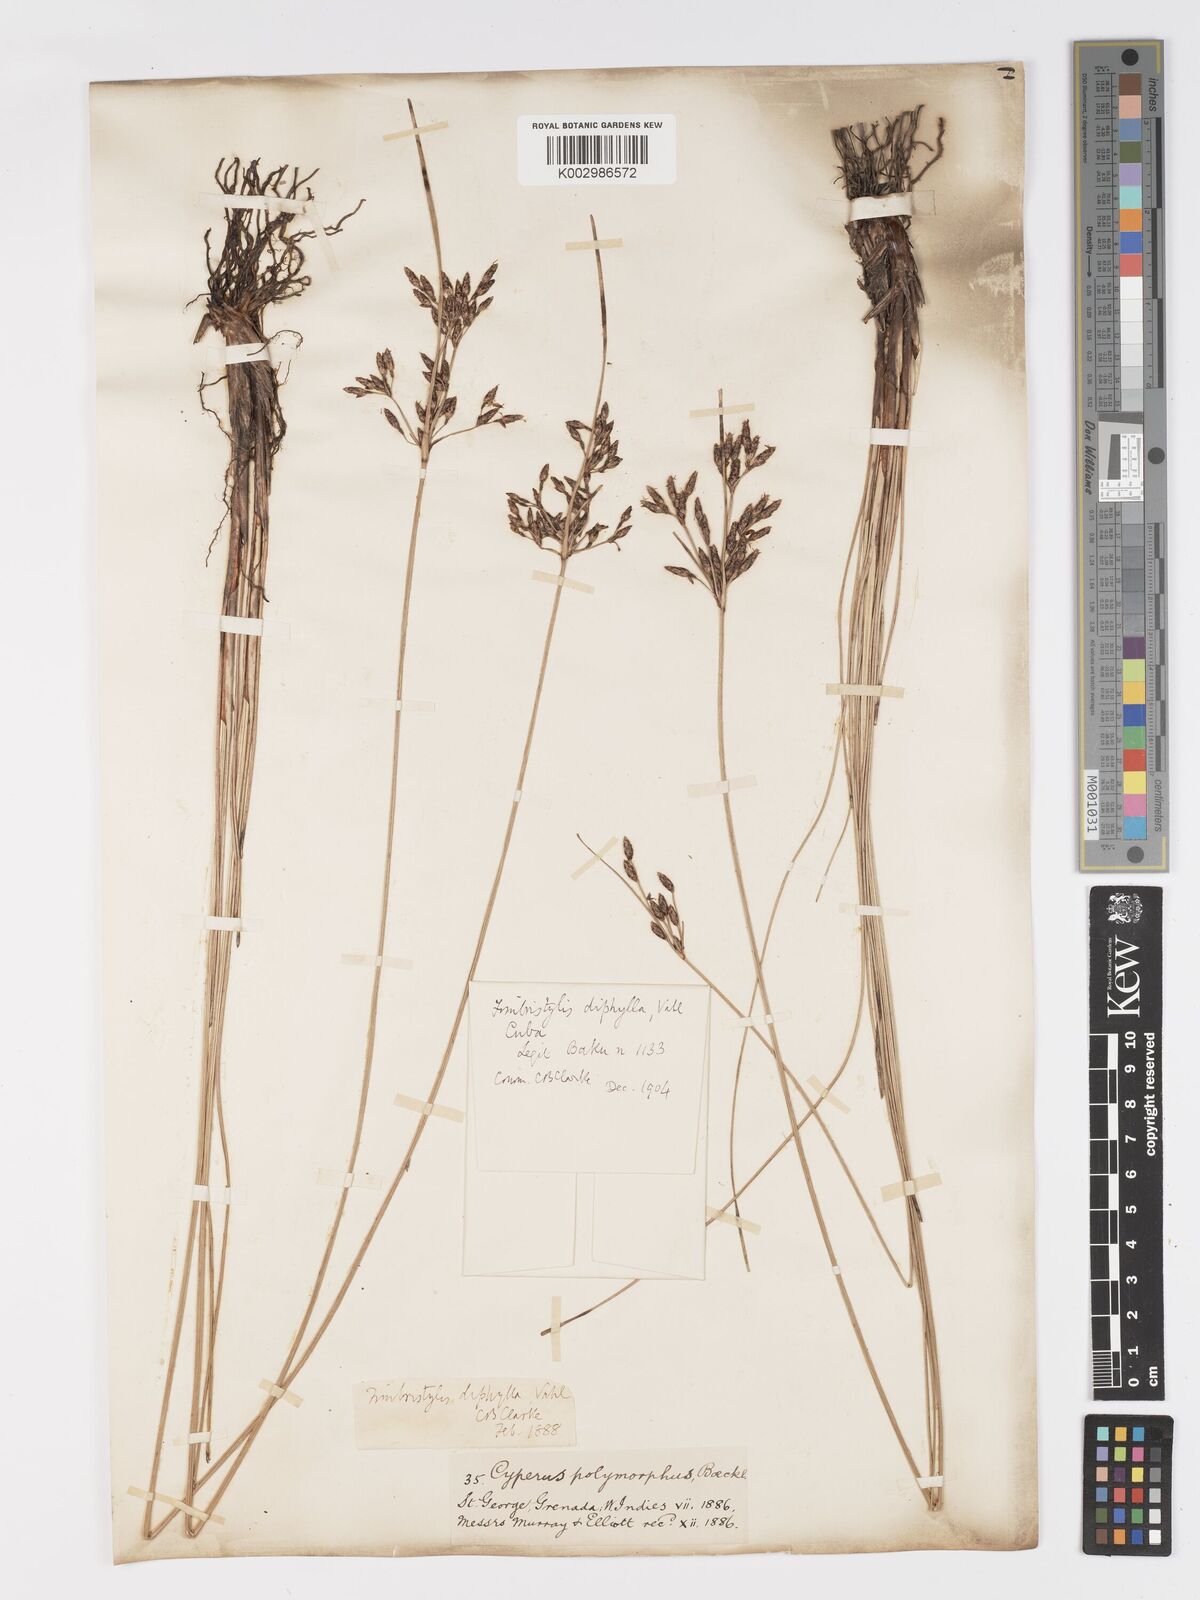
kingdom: Plantae
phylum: Tracheophyta
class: Liliopsida
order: Poales
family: Cyperaceae
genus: Fimbristylis
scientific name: Fimbristylis spadicea
